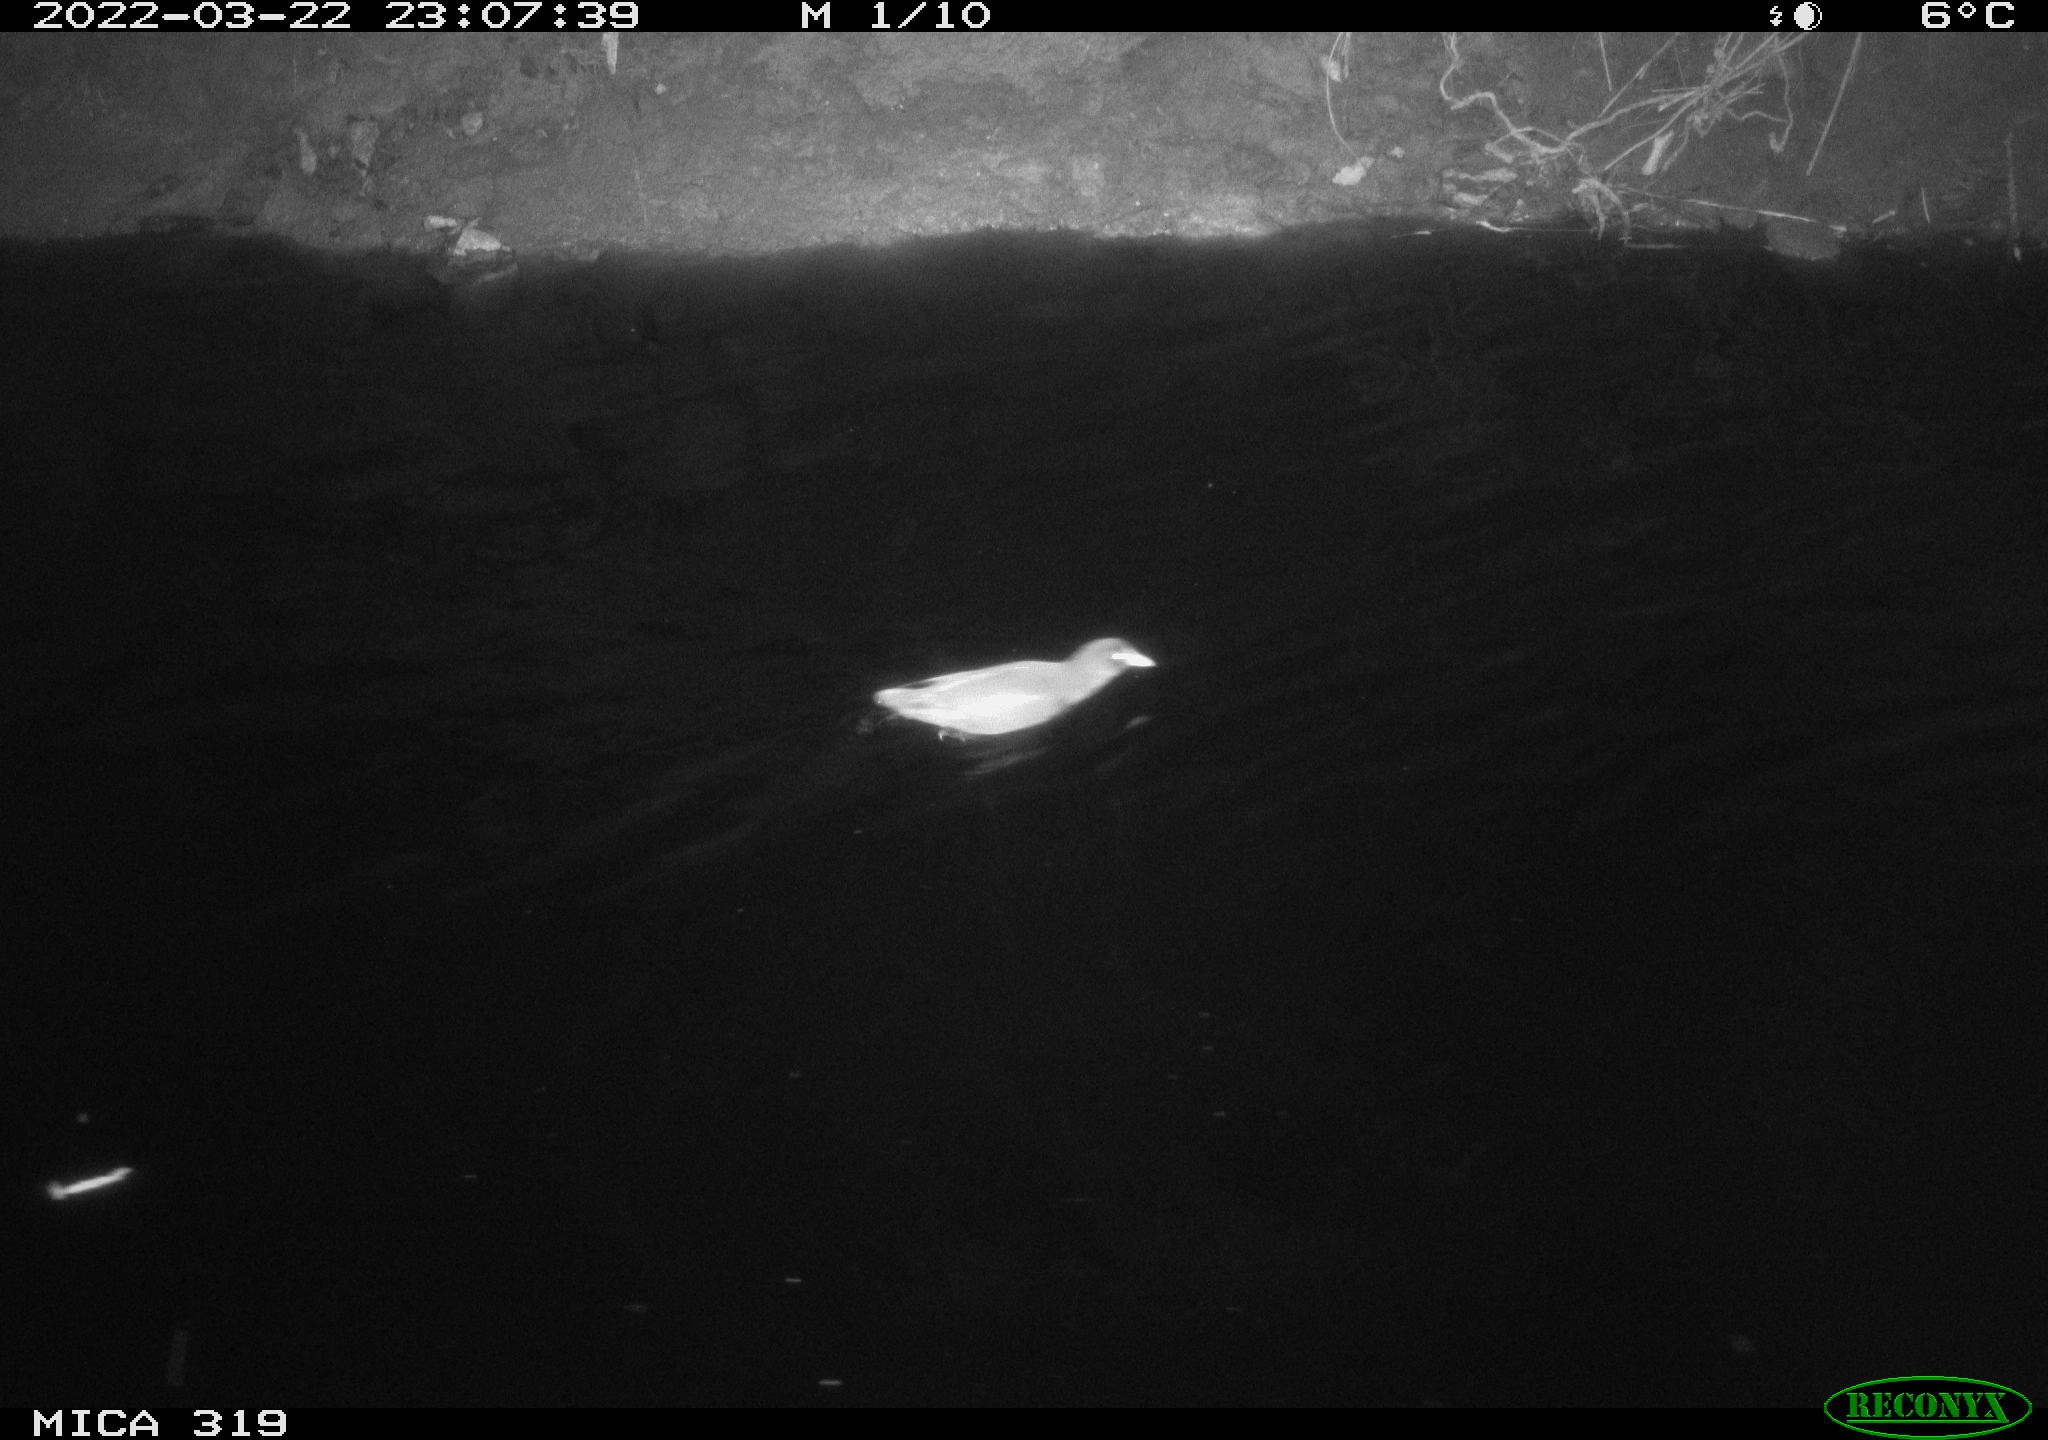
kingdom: Animalia
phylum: Chordata
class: Aves
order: Gruiformes
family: Rallidae
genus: Gallinula
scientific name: Gallinula chloropus
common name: Common moorhen
